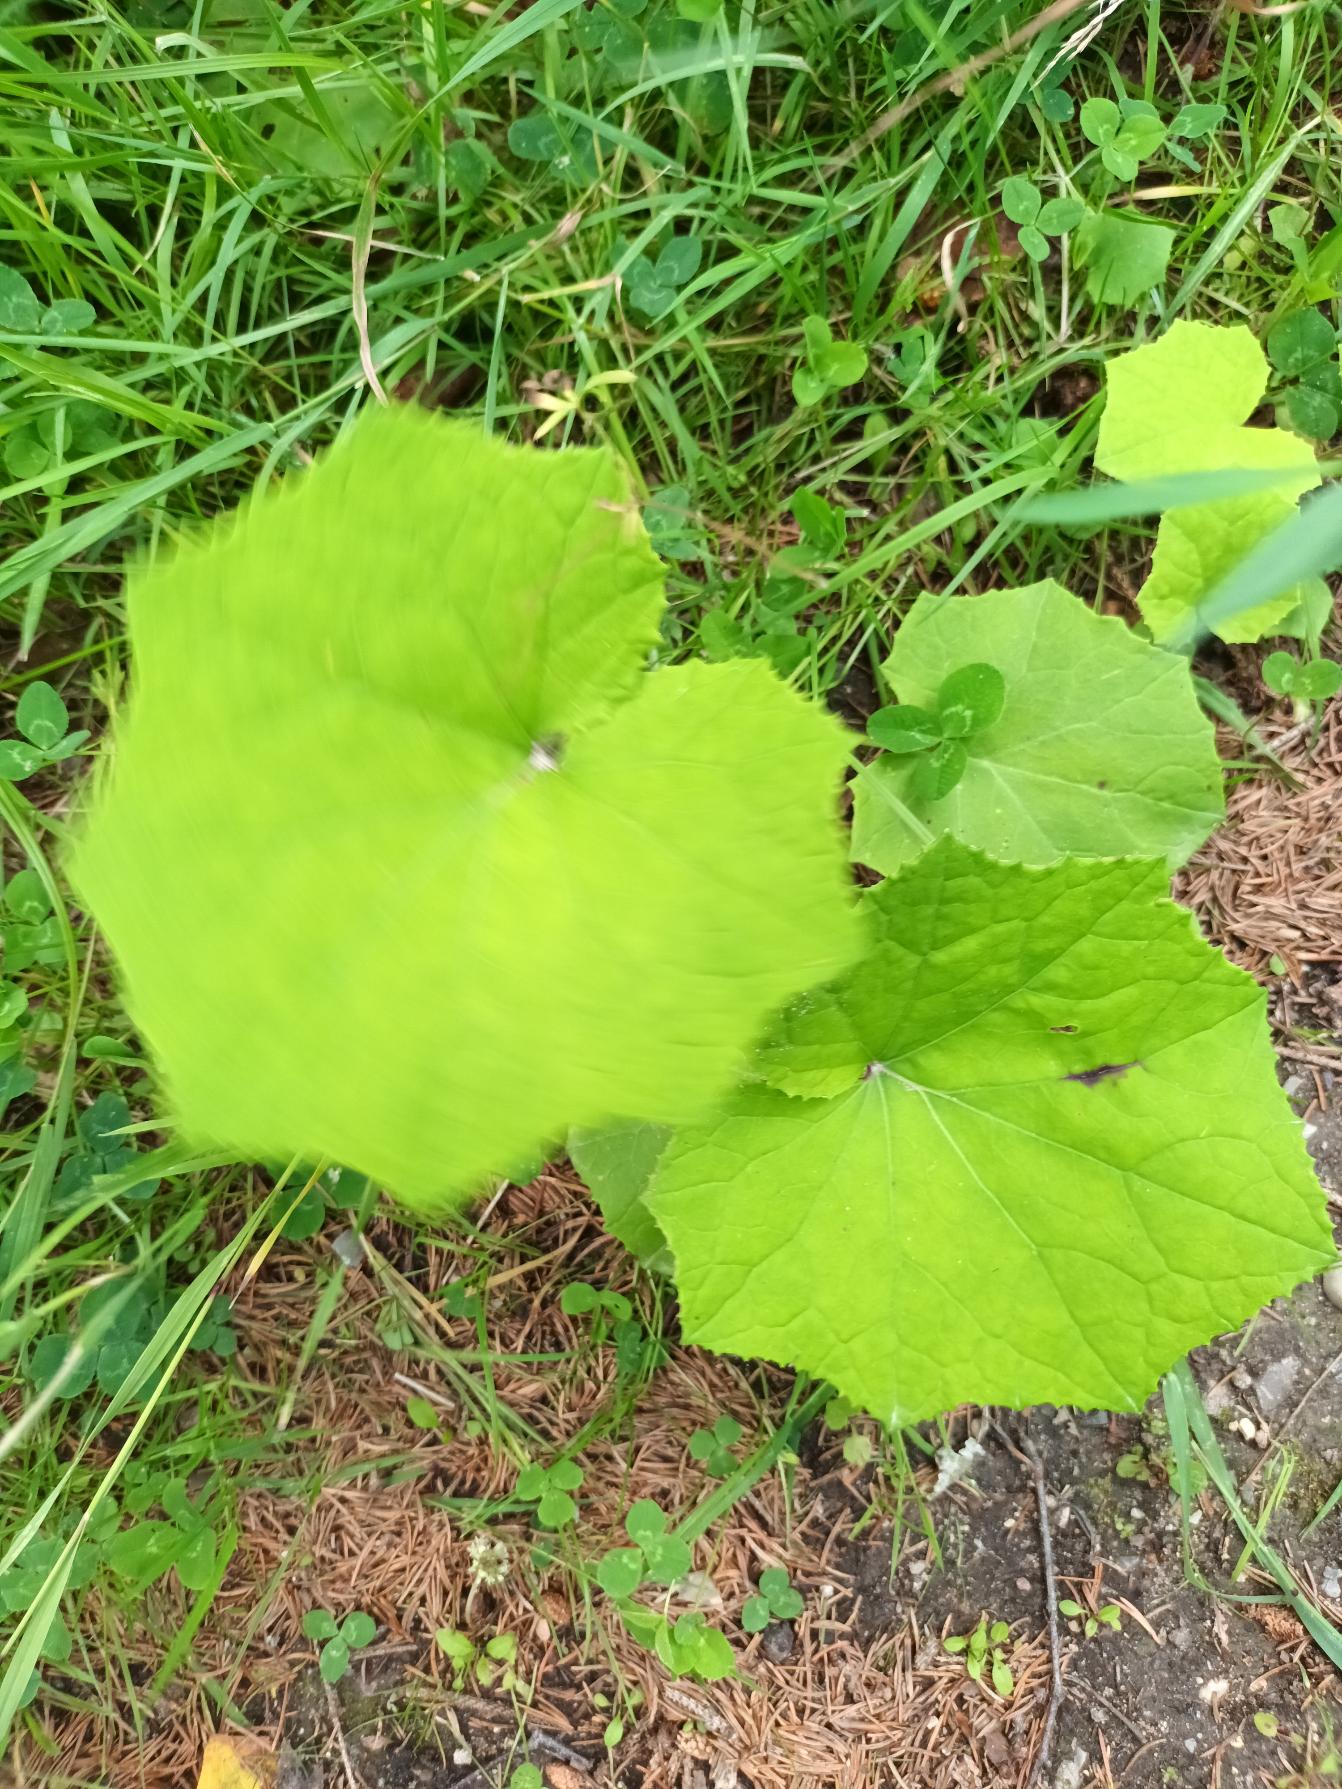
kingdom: Plantae
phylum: Tracheophyta
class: Magnoliopsida
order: Asterales
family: Asteraceae
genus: Tussilago
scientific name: Tussilago farfara
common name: Følfod
